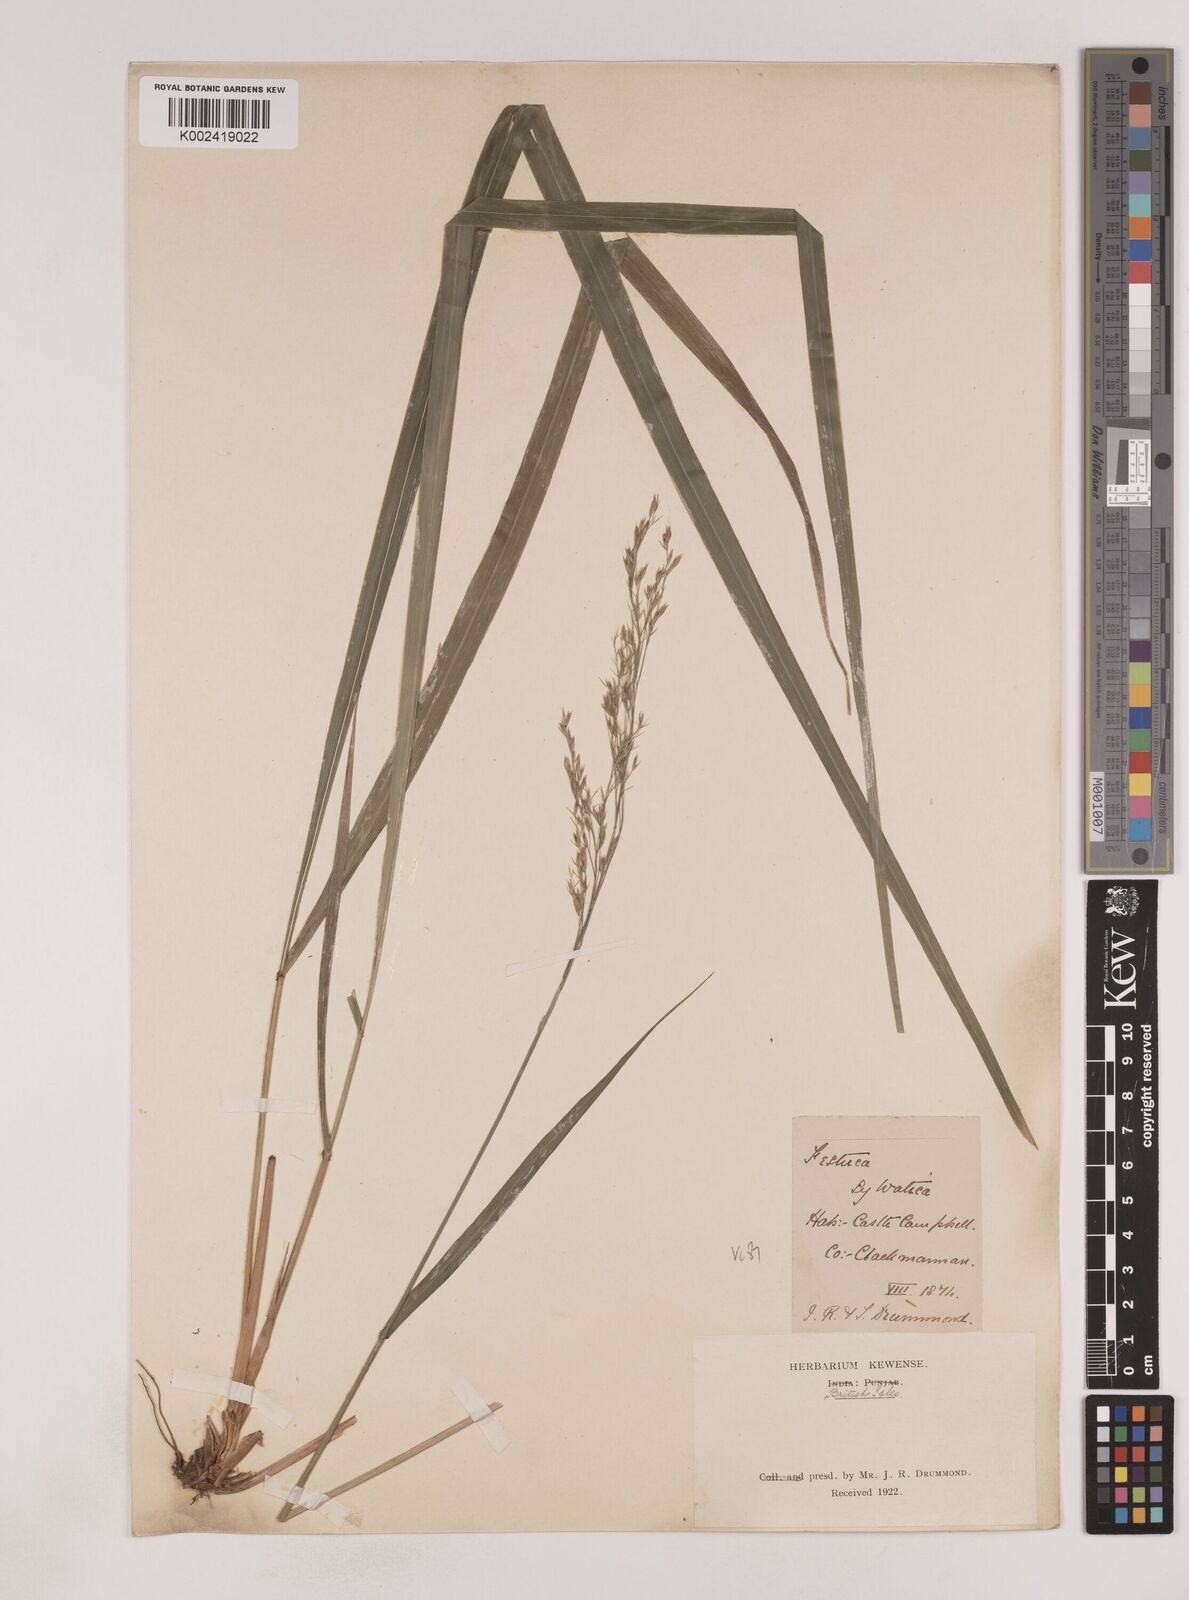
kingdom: Plantae
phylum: Tracheophyta
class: Liliopsida
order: Poales
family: Poaceae
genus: Festuca
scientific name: Festuca drymeja
